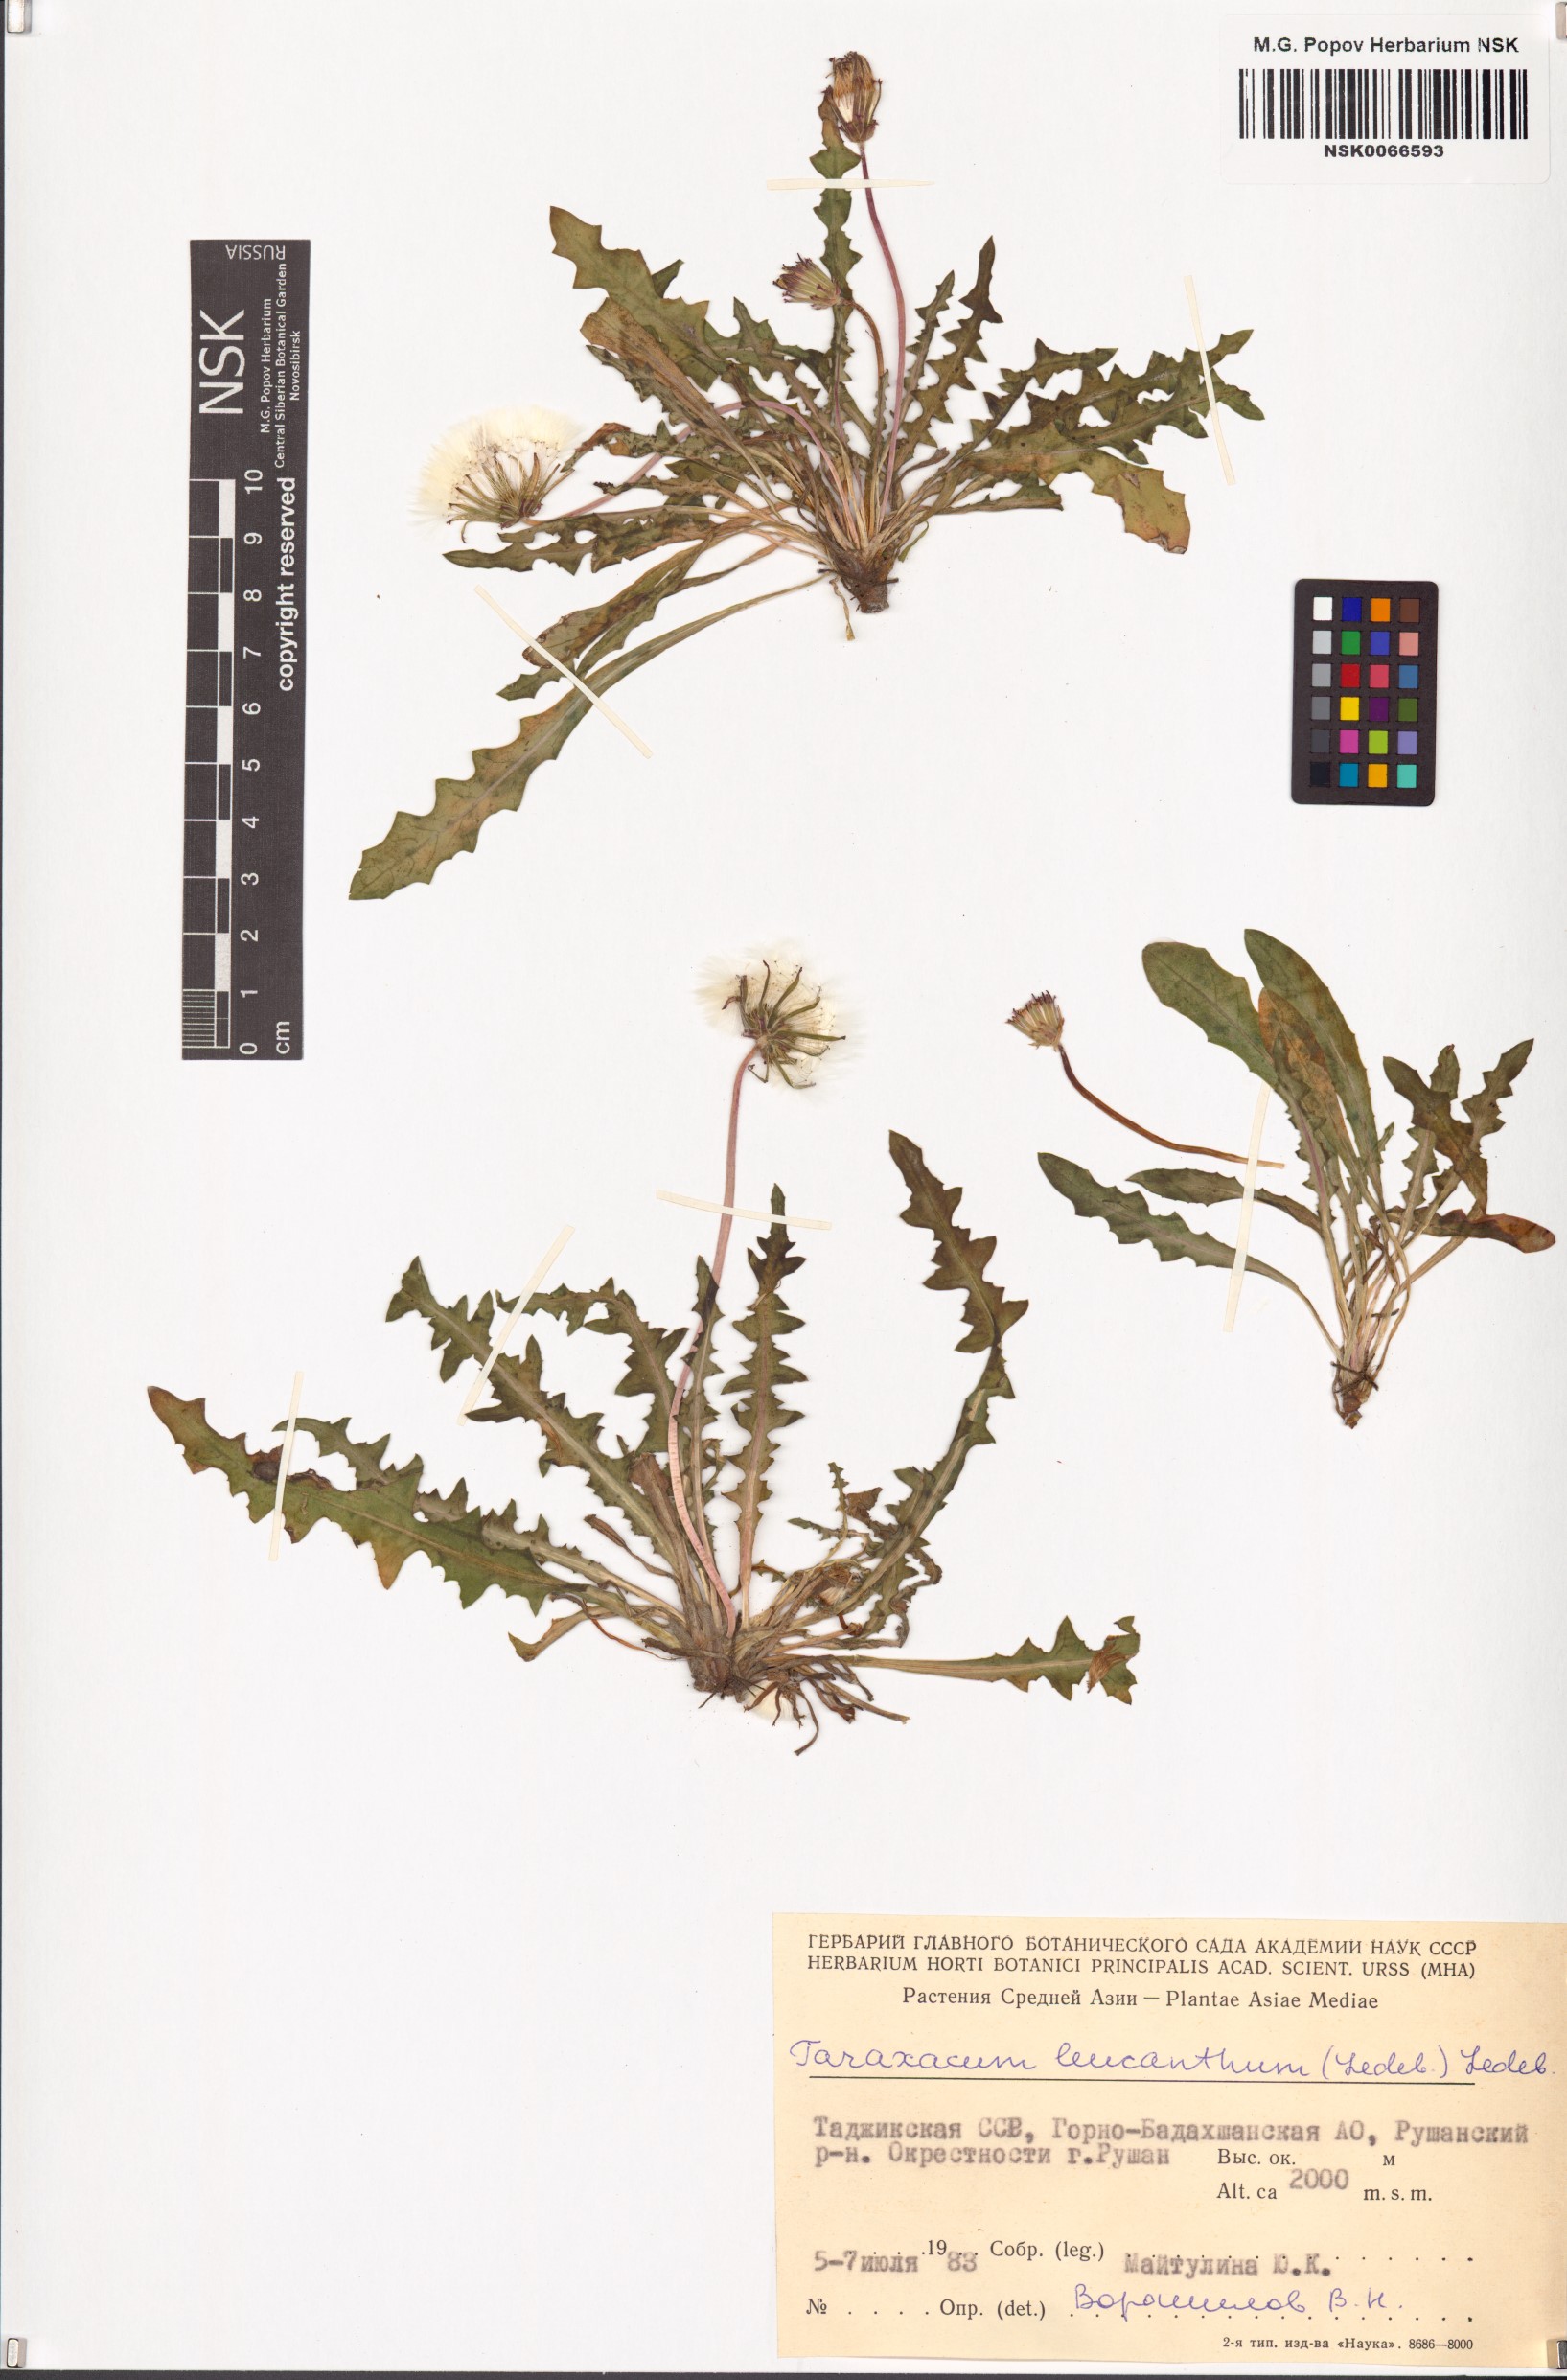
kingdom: Plantae
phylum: Tracheophyta
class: Magnoliopsida
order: Asterales
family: Asteraceae
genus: Taraxacum
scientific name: Taraxacum leucanthum
